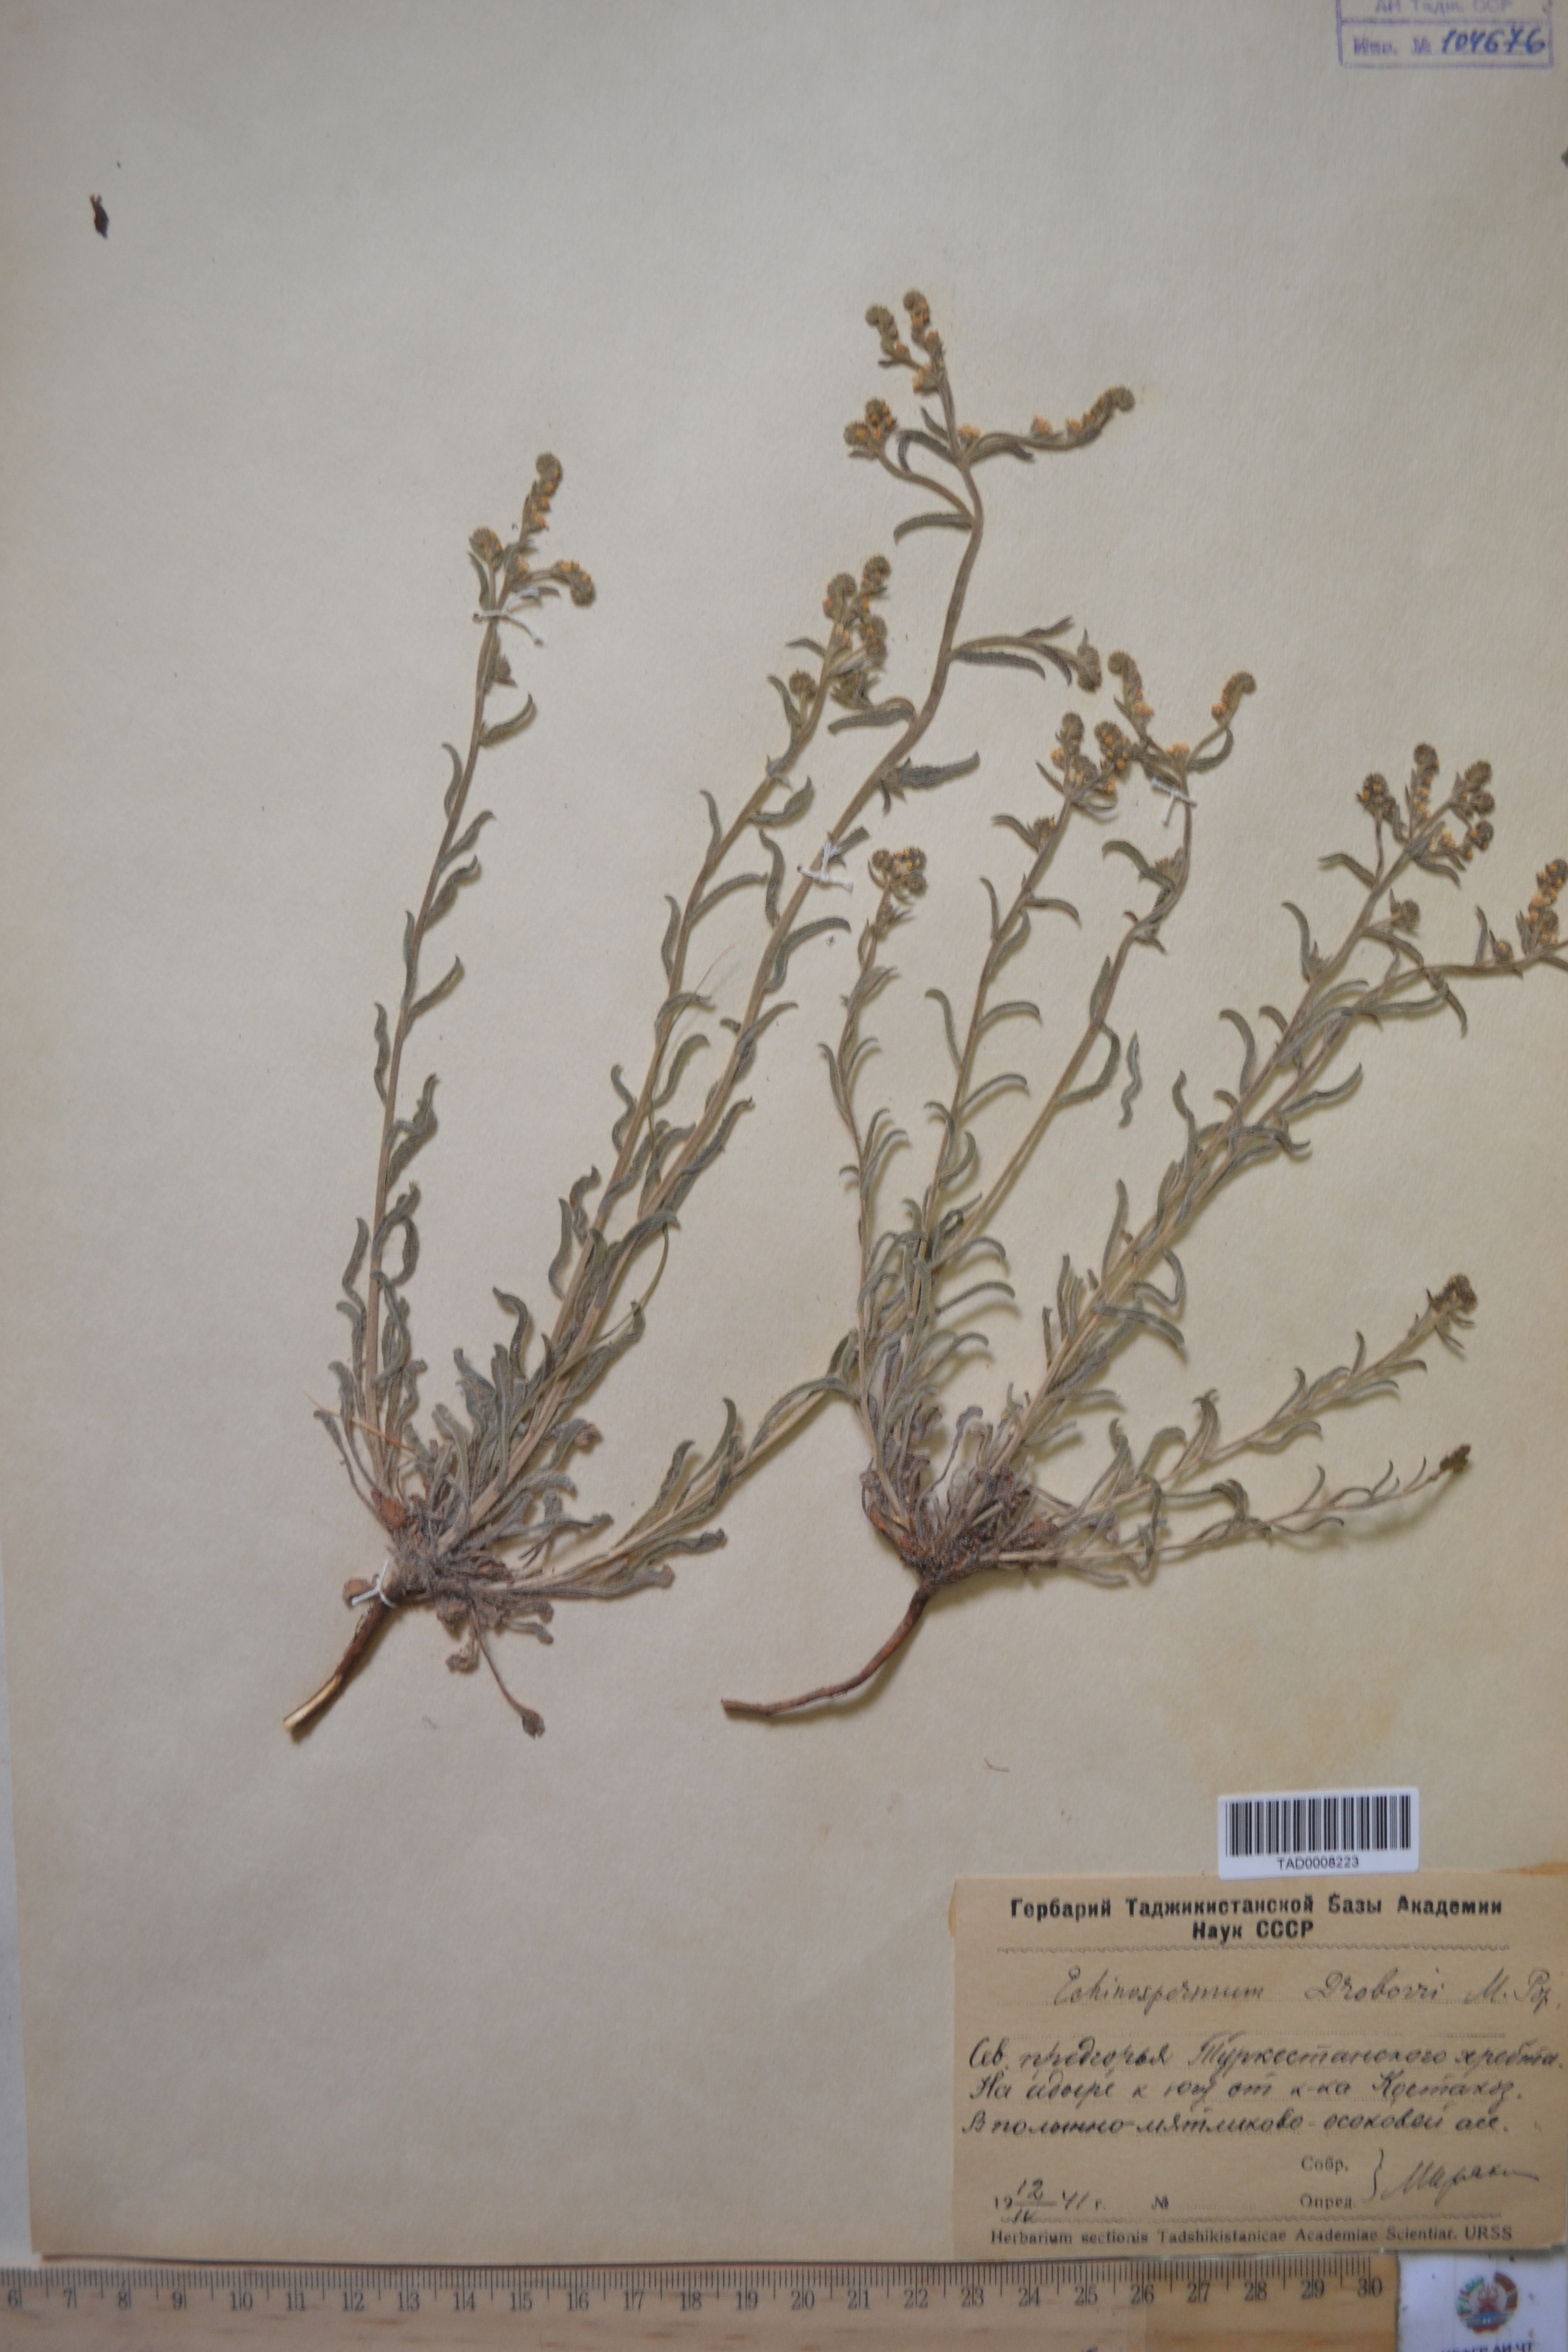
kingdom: Plantae
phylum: Tracheophyta
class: Magnoliopsida
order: Boraginales
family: Boraginaceae
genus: Rochelia
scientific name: Rochelia drobovii
